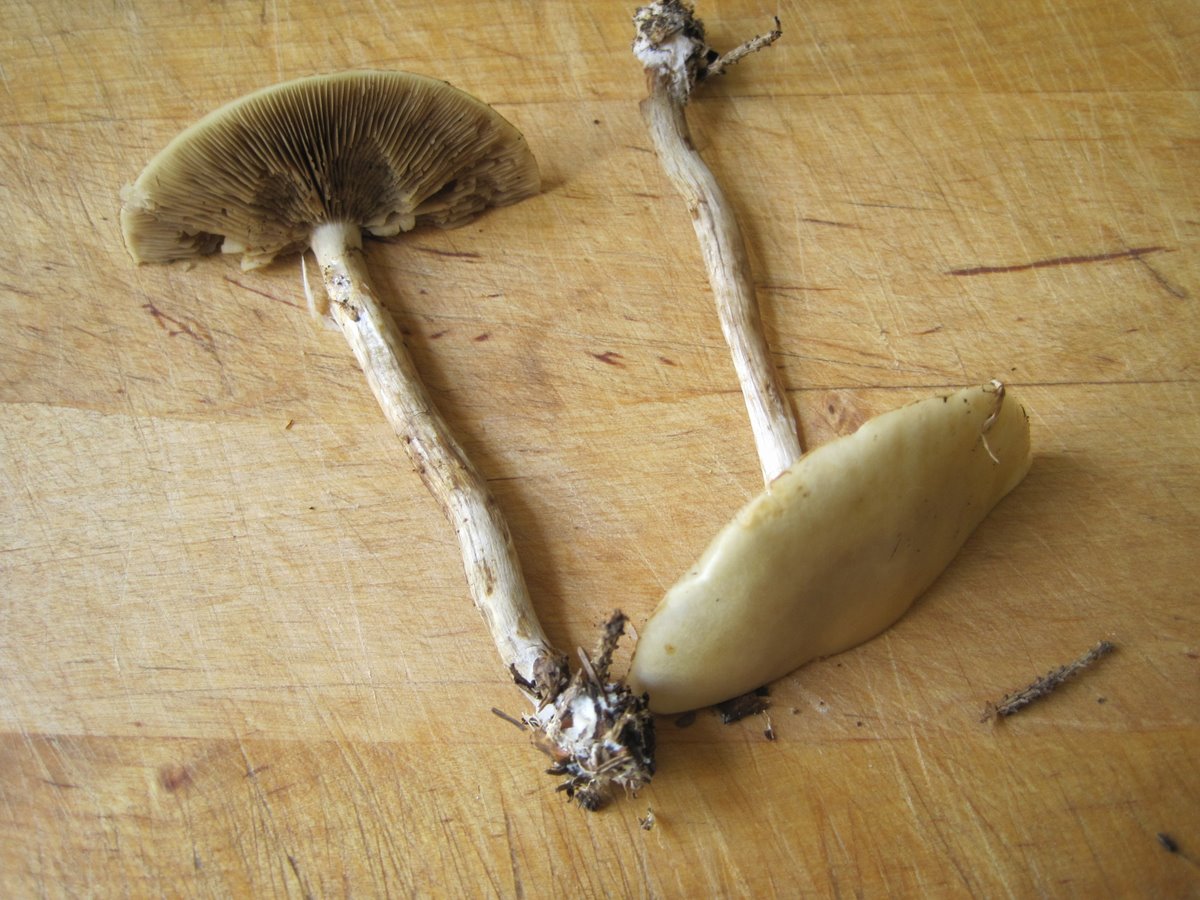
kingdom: Fungi
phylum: Basidiomycota
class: Agaricomycetes
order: Agaricales
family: Strophariaceae
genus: Agrocybe
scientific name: Agrocybe praecox
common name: tidlig agerhat
